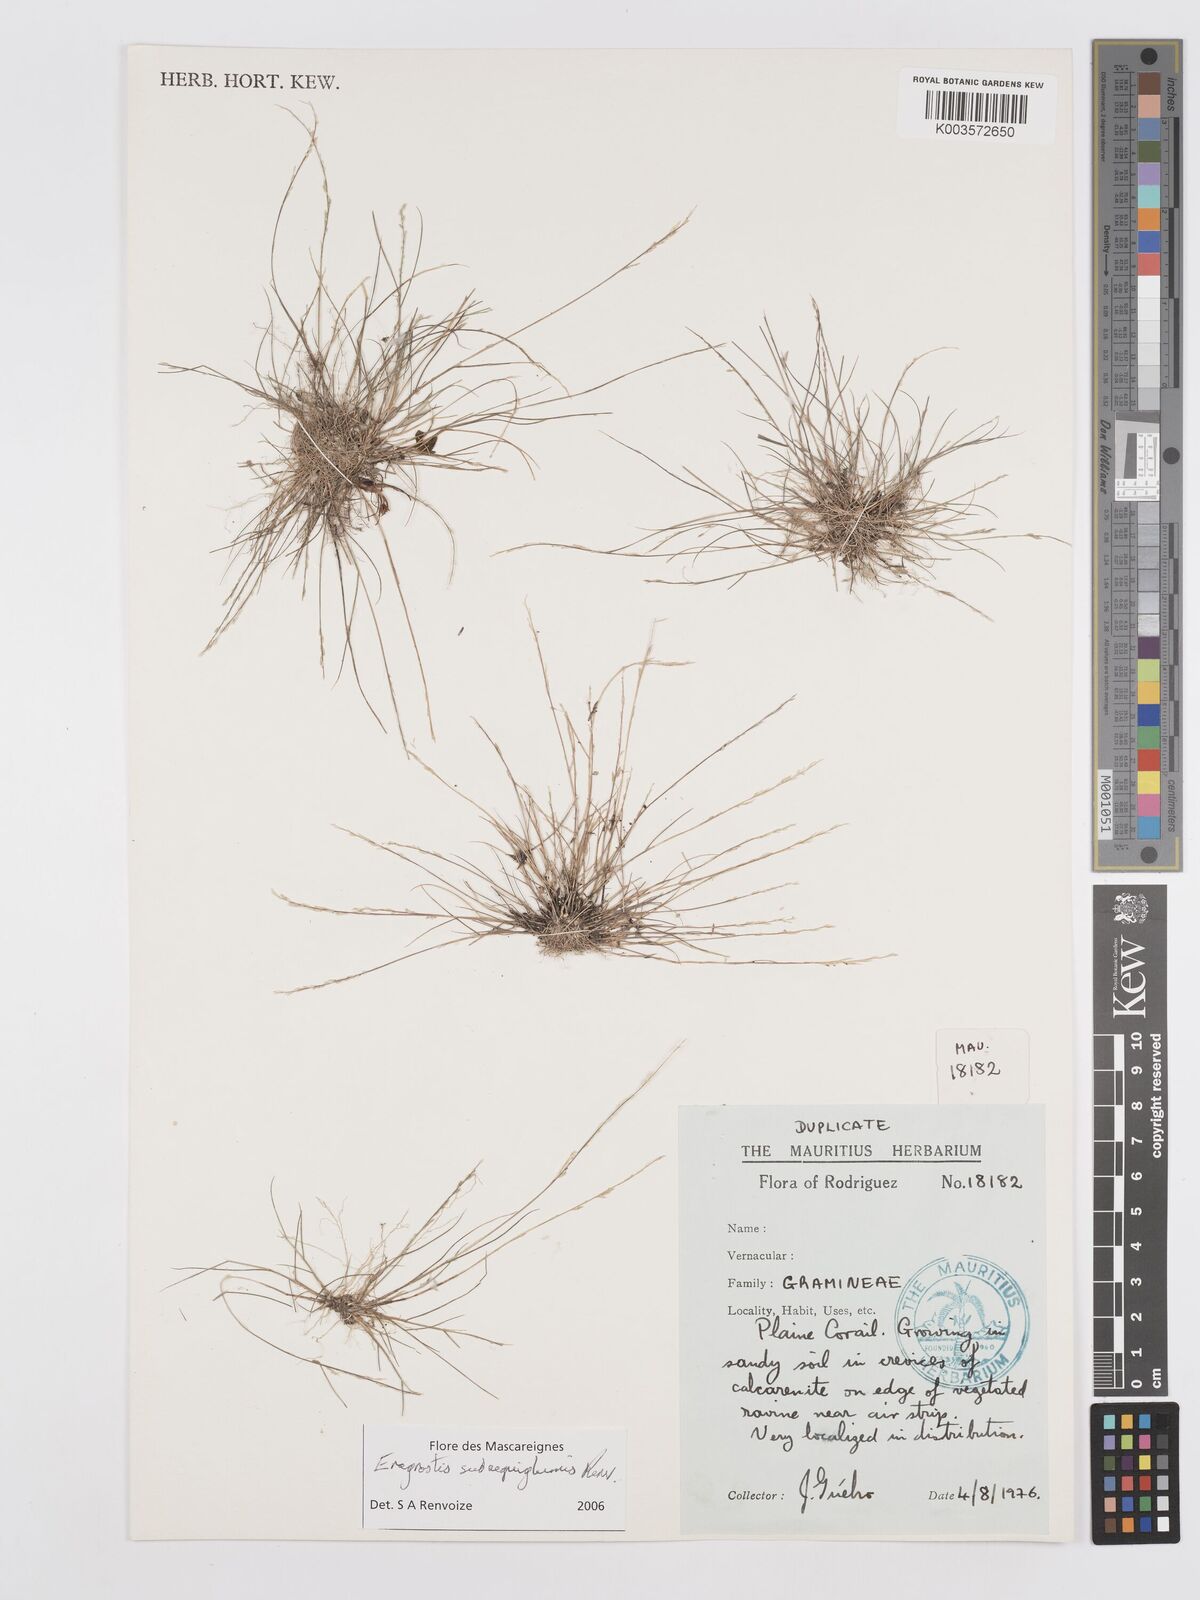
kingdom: Plantae
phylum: Tracheophyta
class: Liliopsida
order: Poales
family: Poaceae
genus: Eragrostis
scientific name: Eragrostis subaequiglumis
